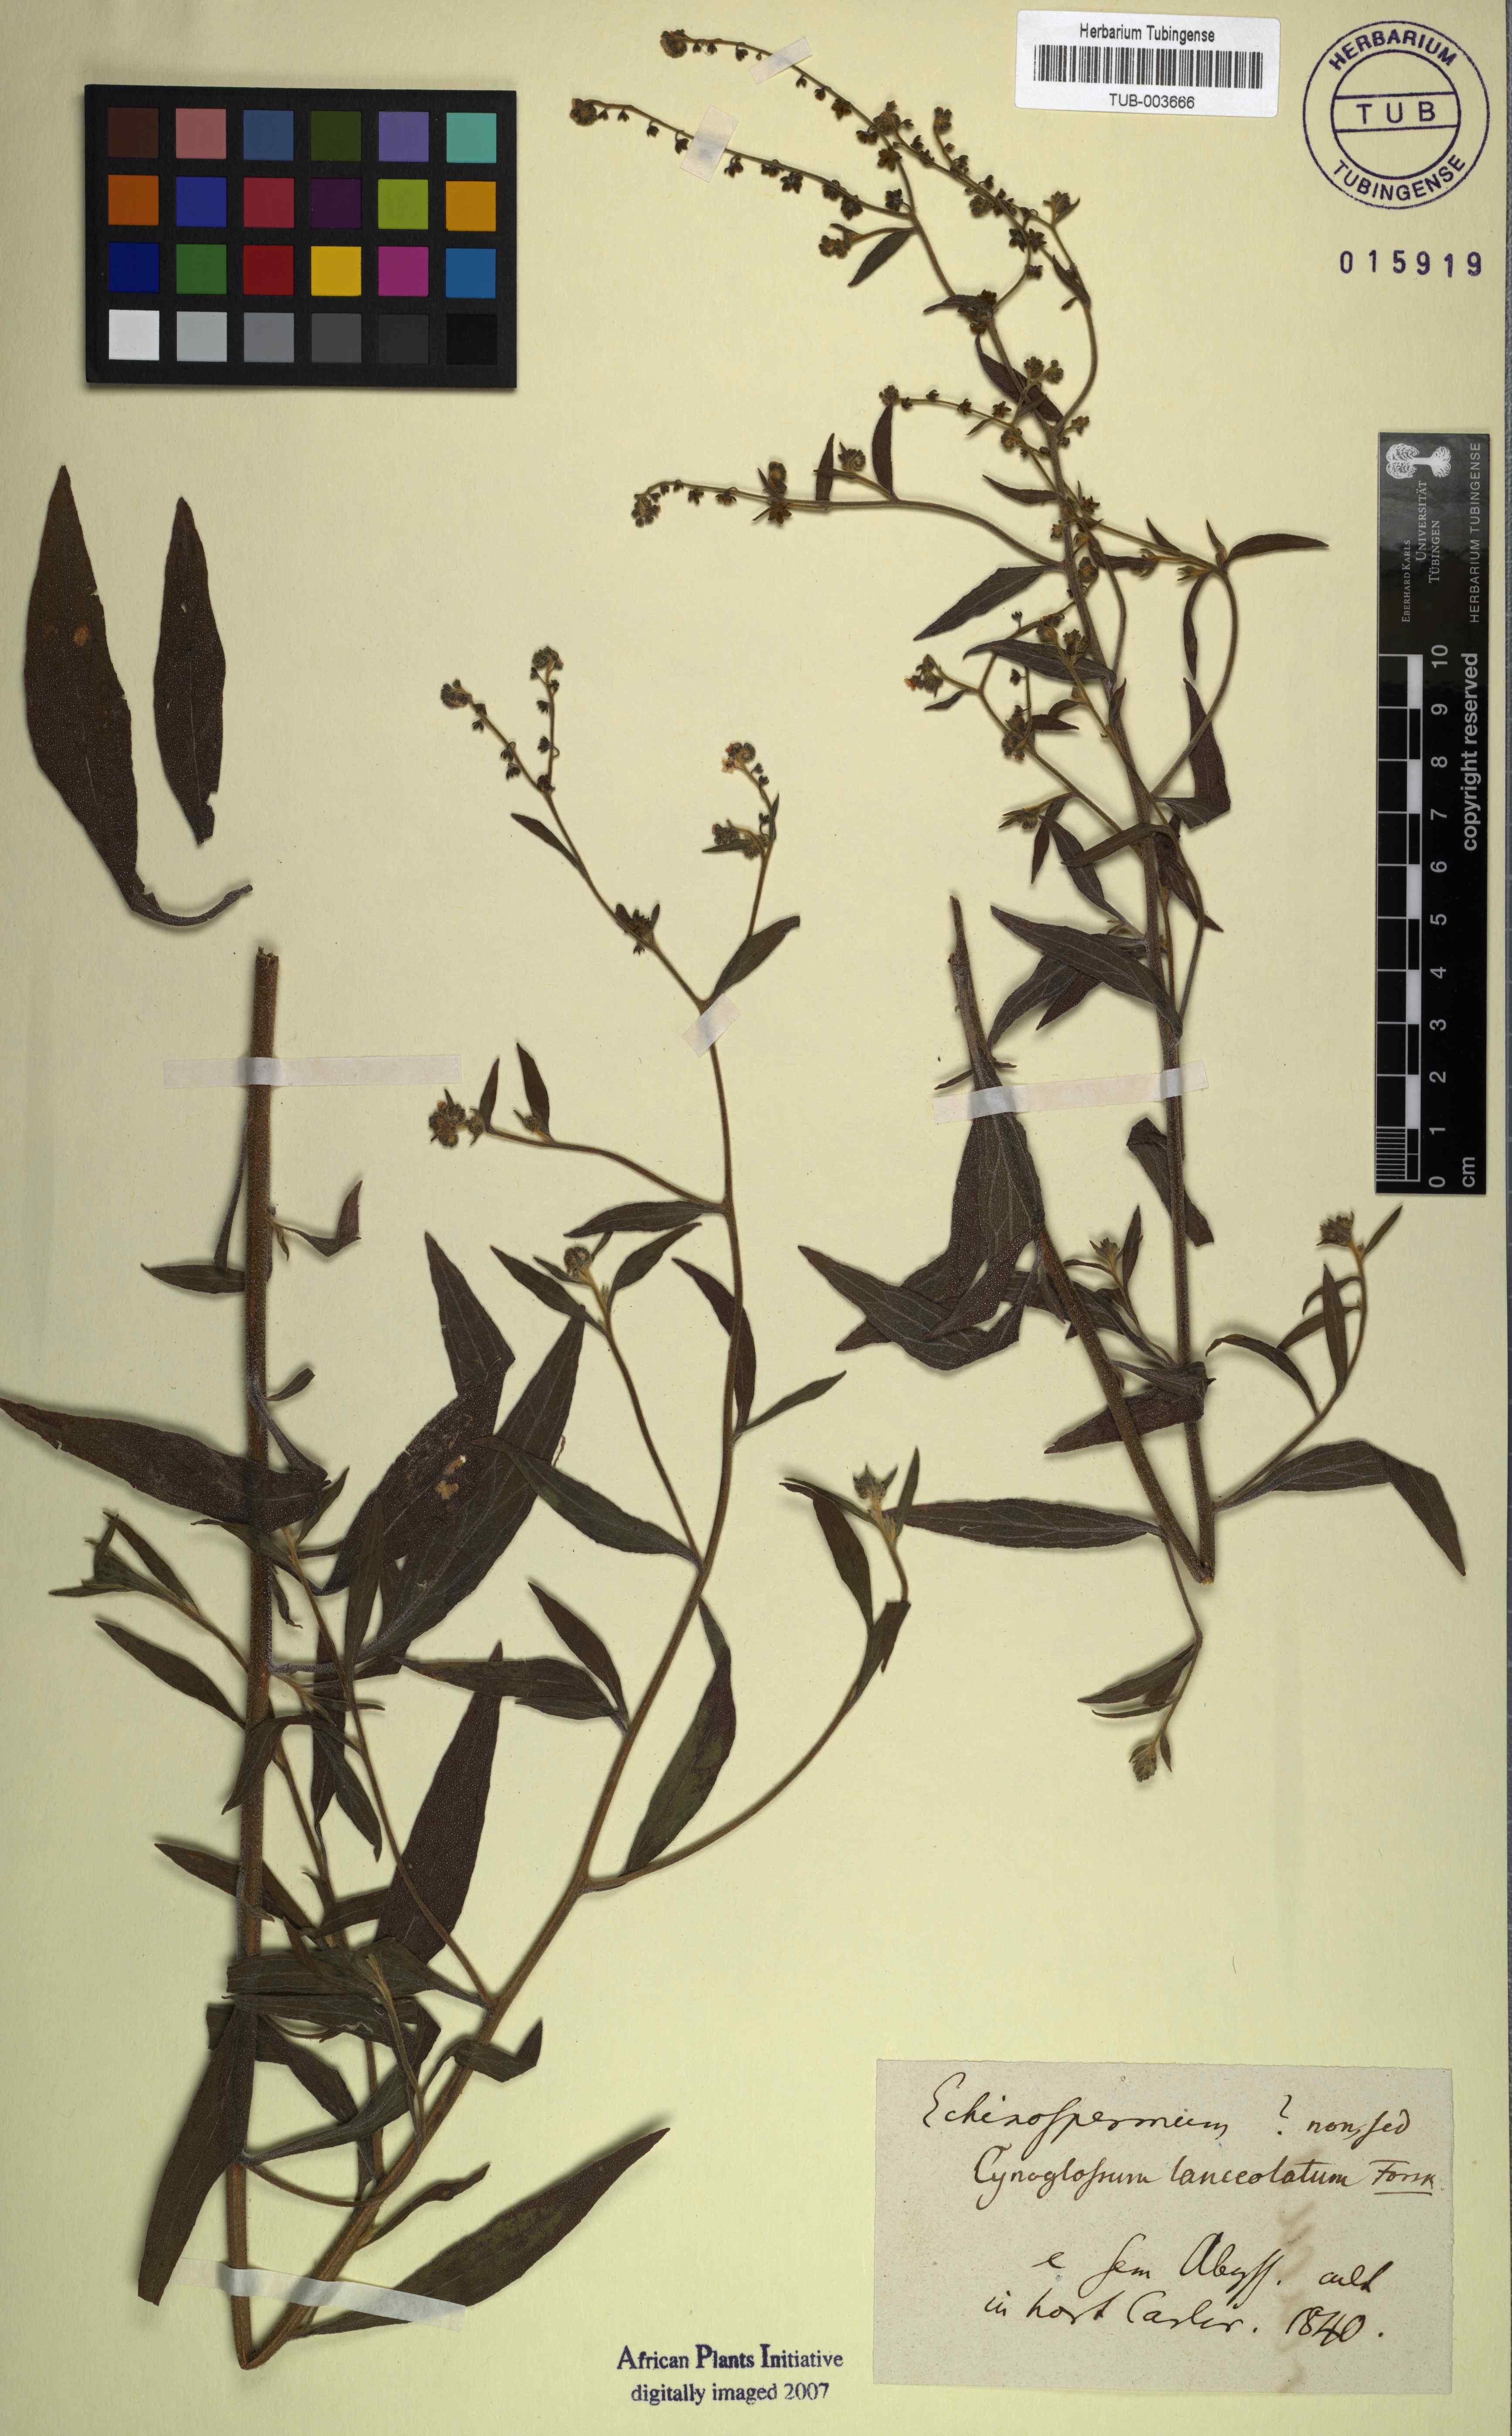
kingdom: Plantae
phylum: Tracheophyta
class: Magnoliopsida
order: Boraginales
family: Boraginaceae
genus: Paracynoglossum
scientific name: Paracynoglossum lanceolatum
